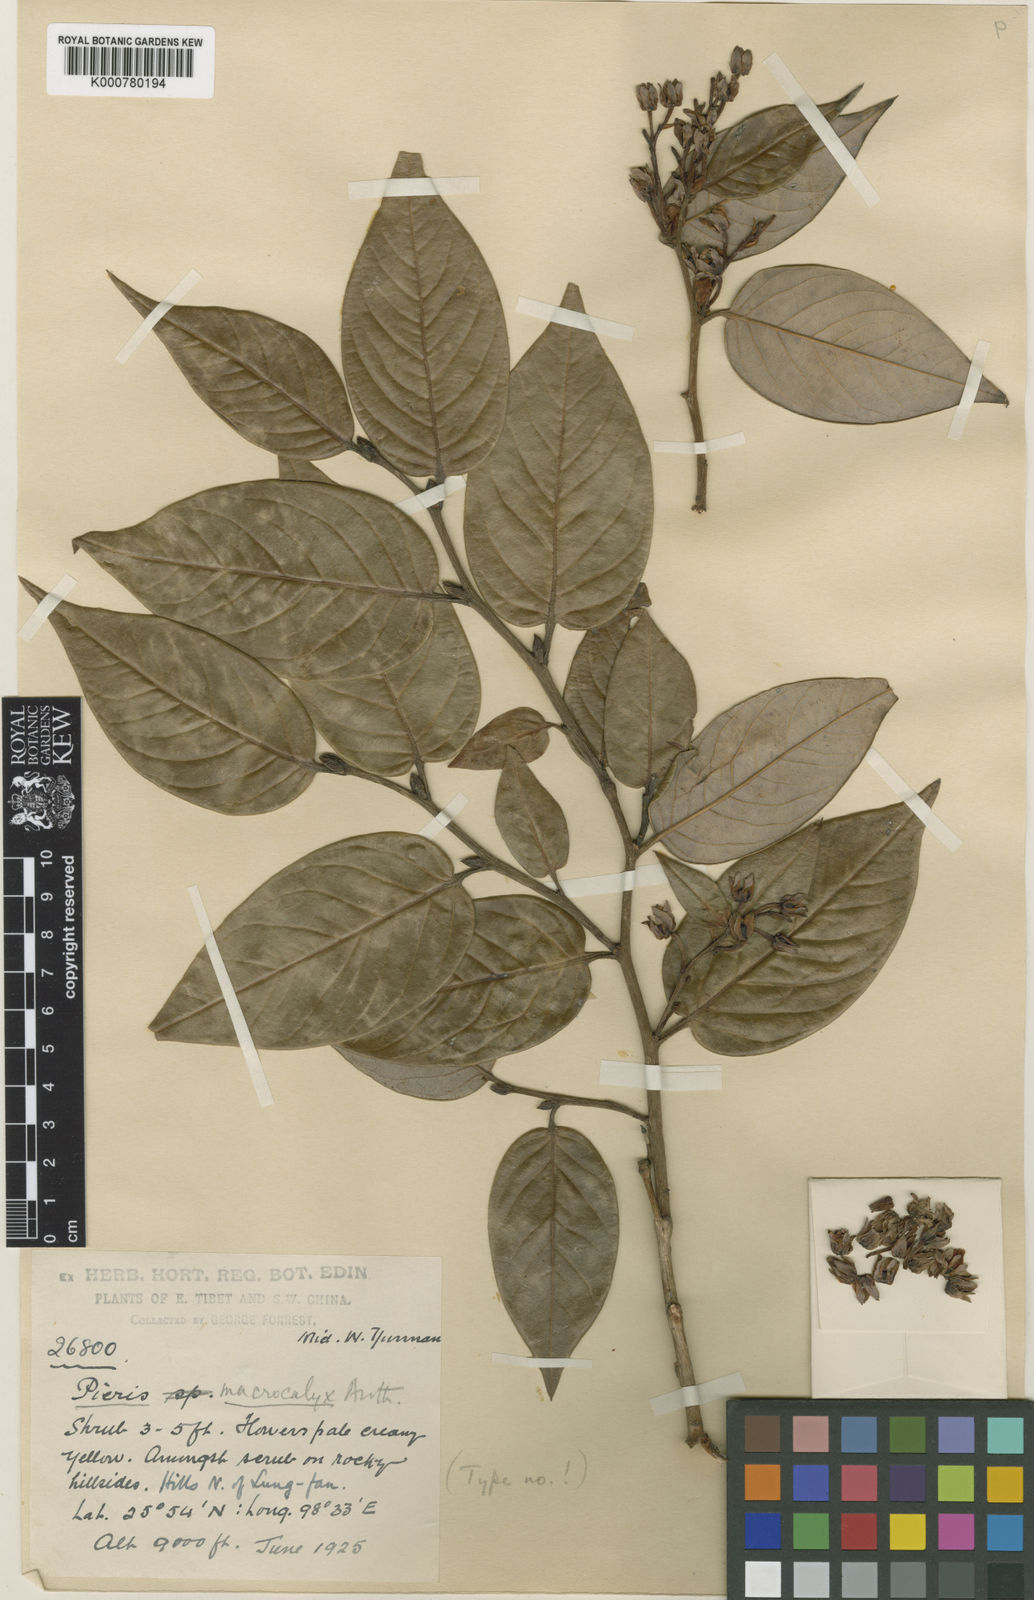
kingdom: Plantae
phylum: Tracheophyta
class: Magnoliopsida
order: Ericales
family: Ericaceae
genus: Lyonia
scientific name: Lyonia macrocalyx
